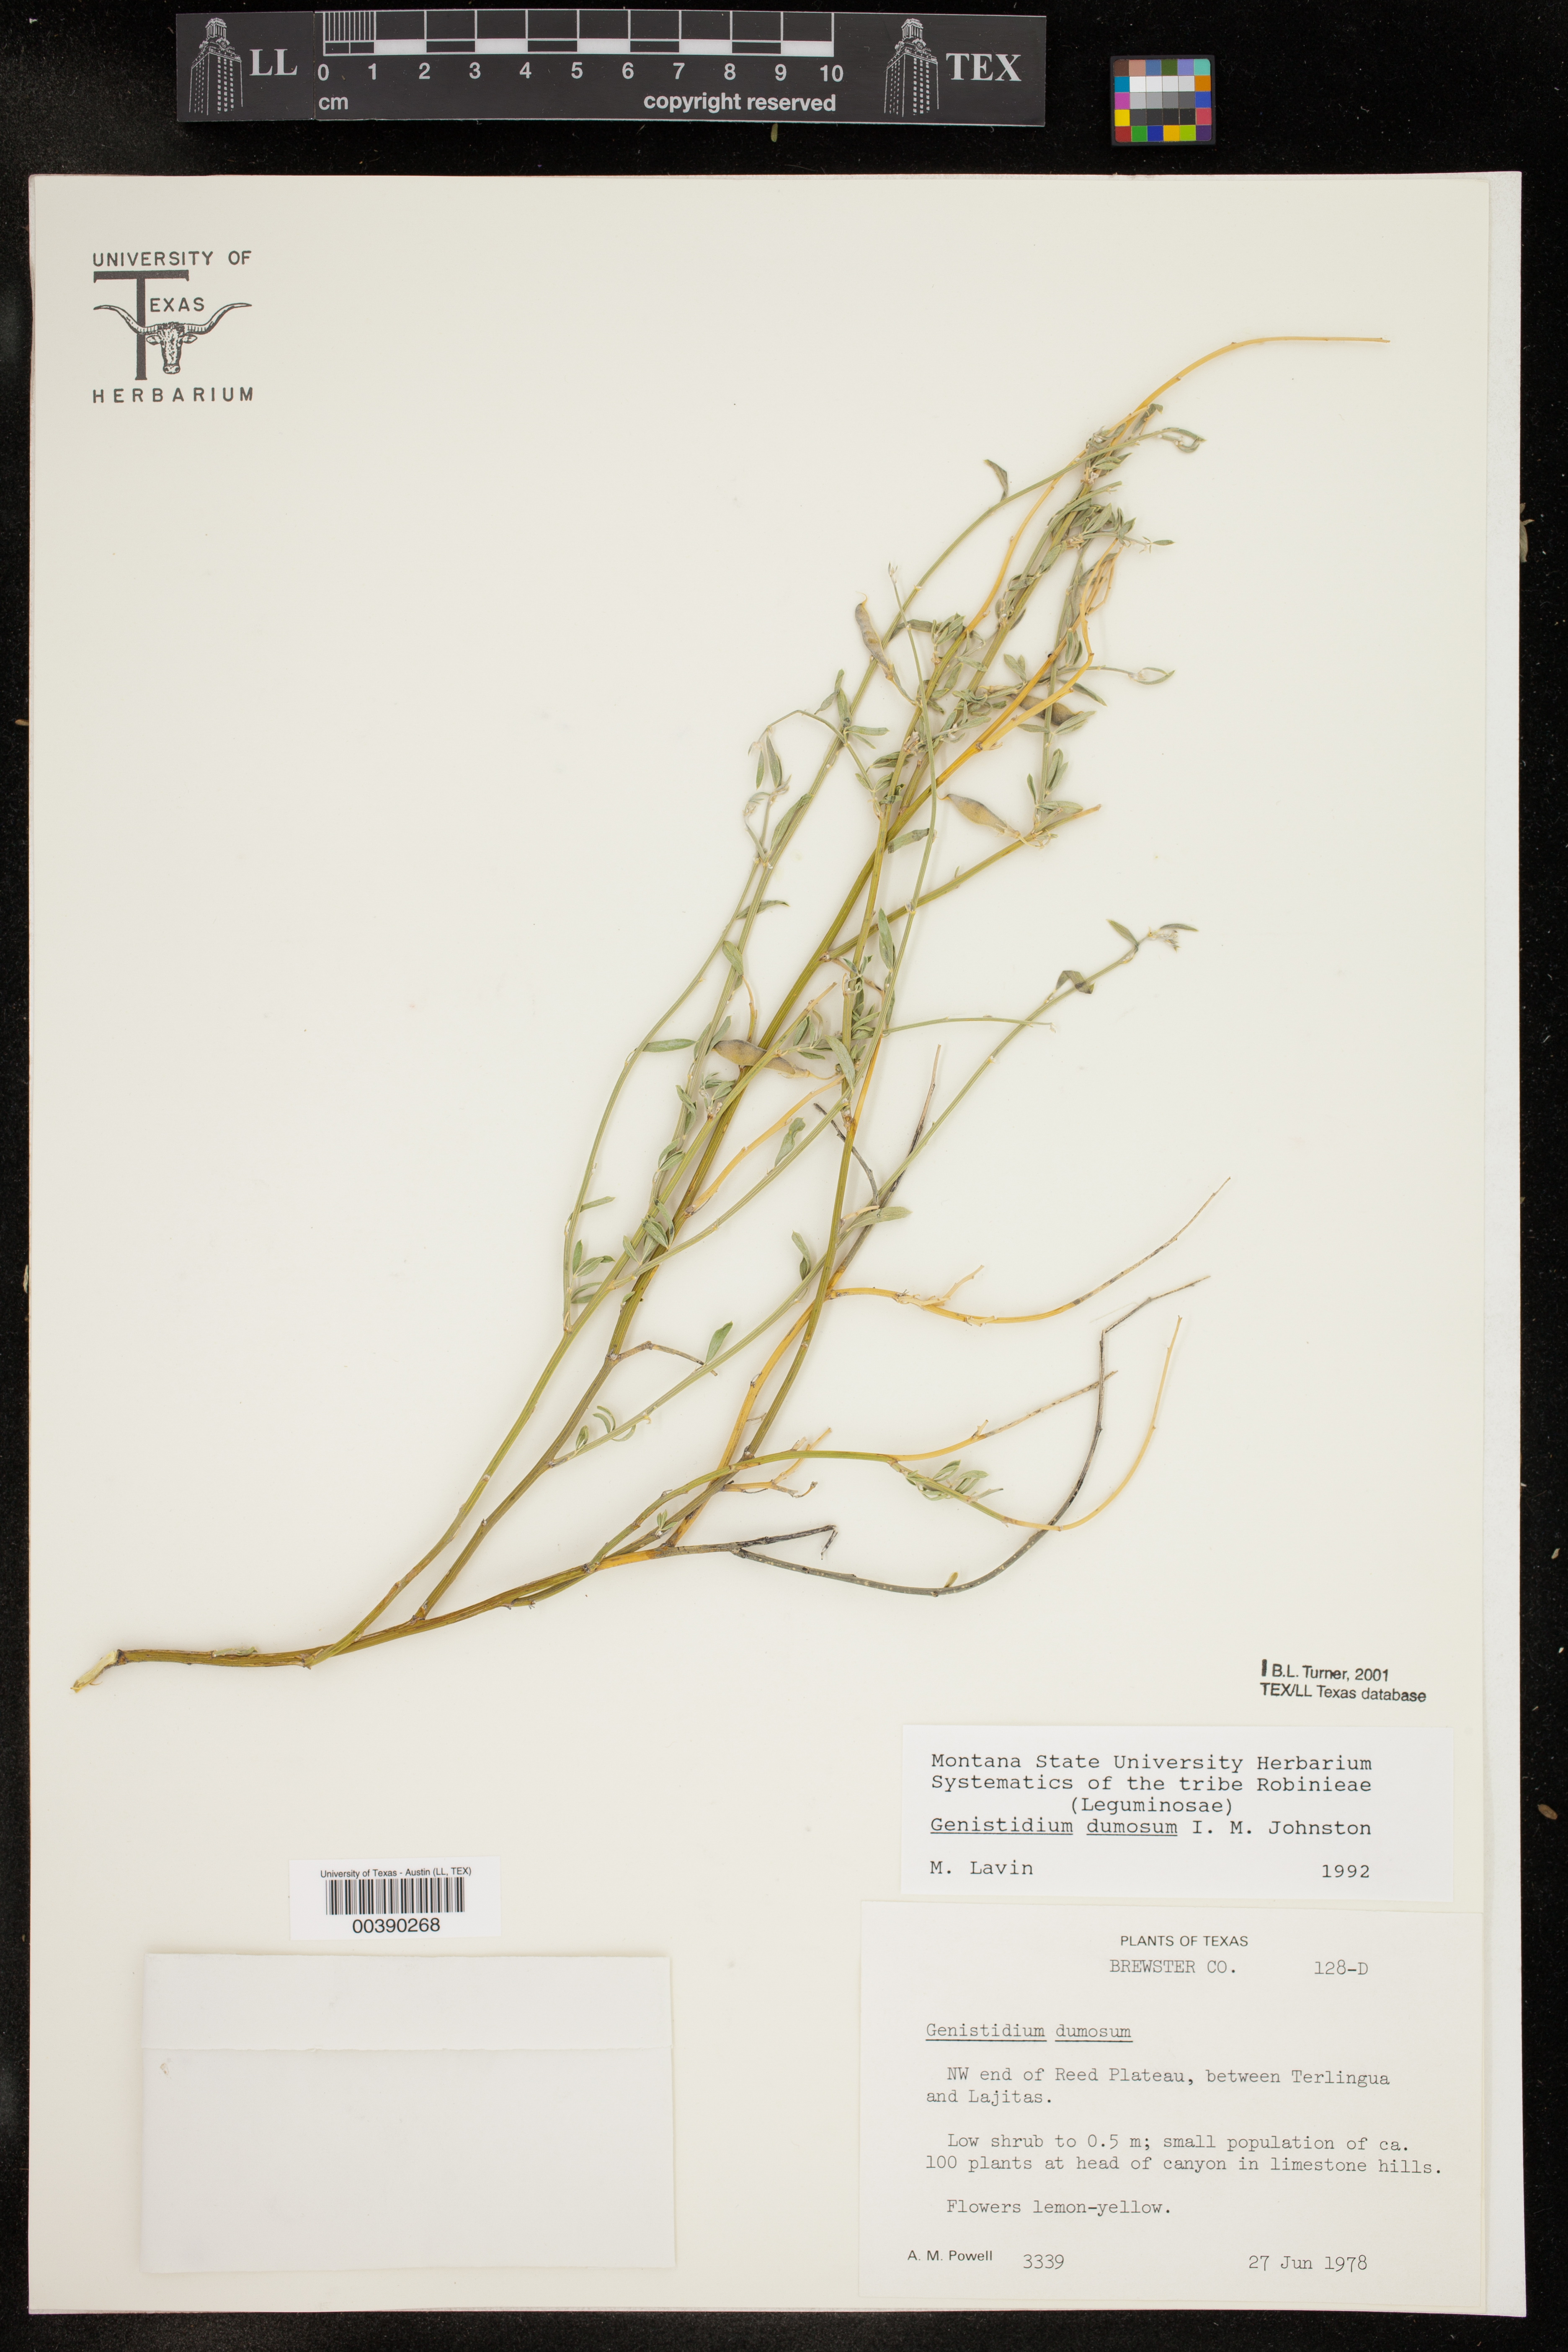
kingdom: Plantae
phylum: Tracheophyta
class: Magnoliopsida
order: Fabales
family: Fabaceae
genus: Genistidium
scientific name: Genistidium dumosum
